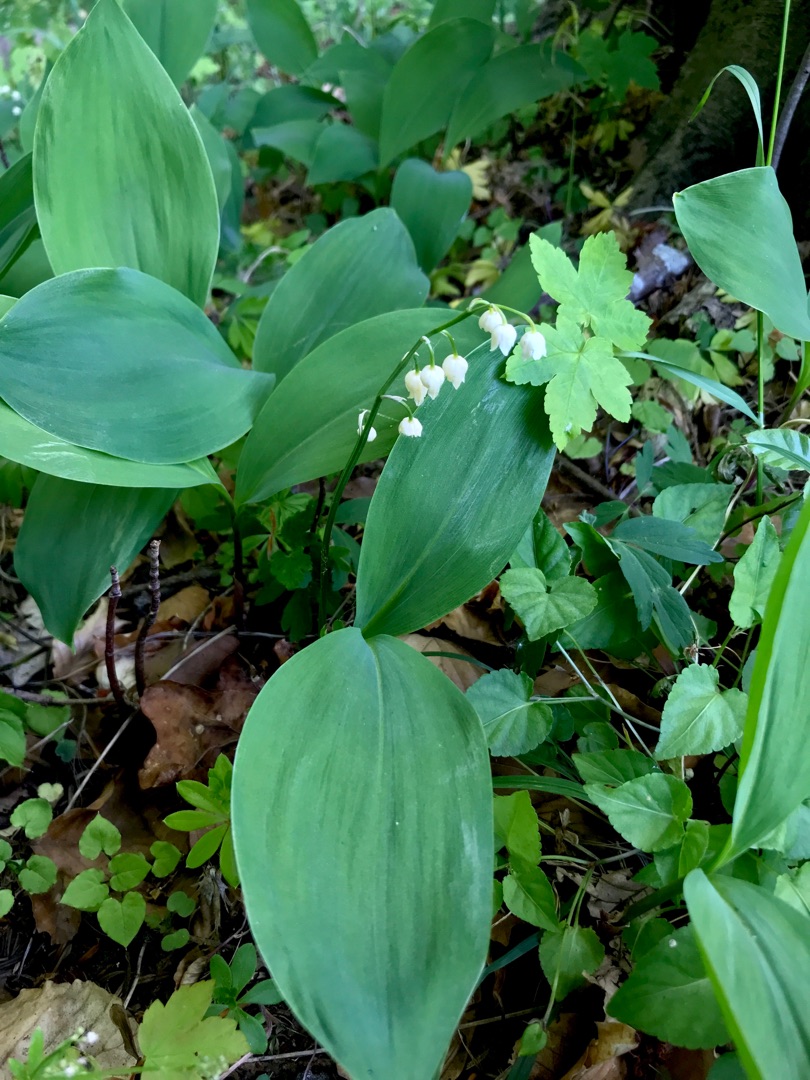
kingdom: Plantae
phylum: Tracheophyta
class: Liliopsida
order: Asparagales
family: Asparagaceae
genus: Convallaria
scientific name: Convallaria majalis
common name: Liljekonval
